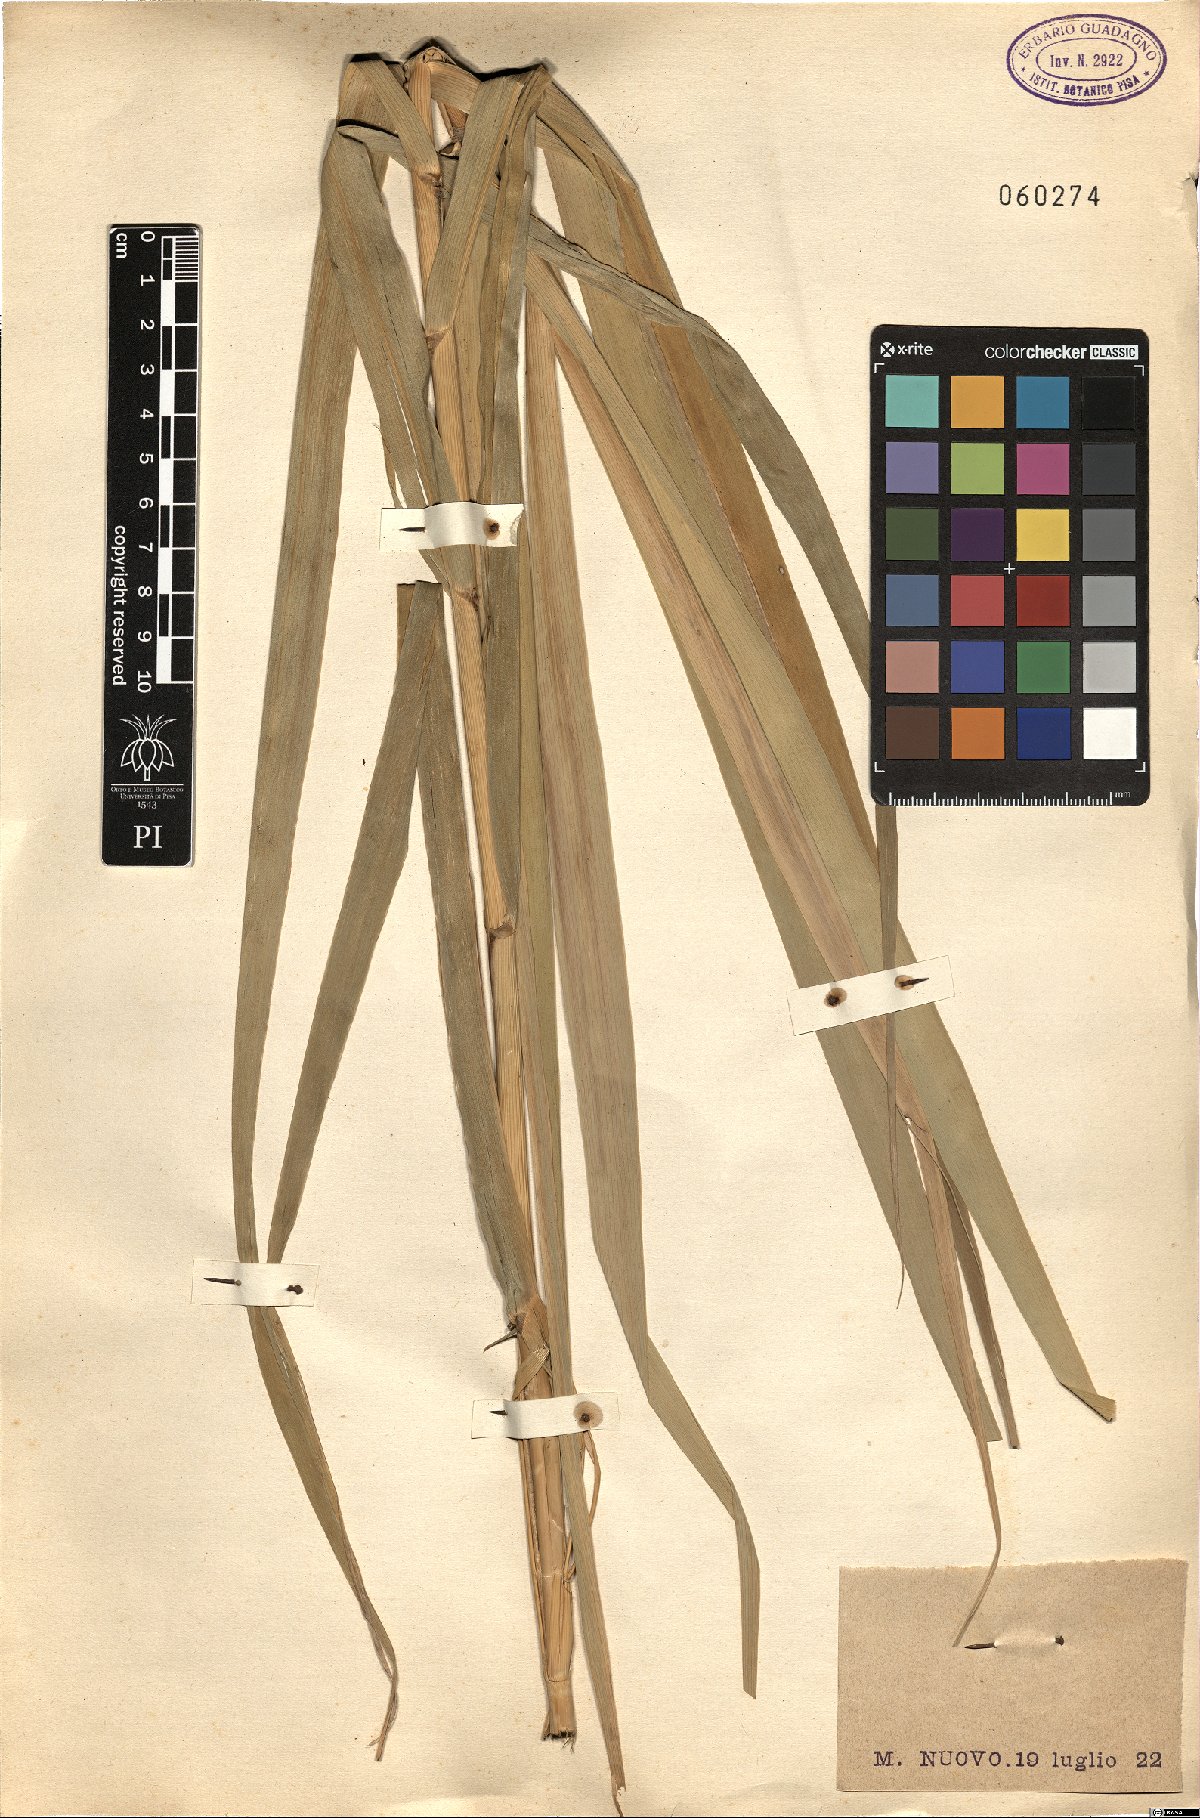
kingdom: Plantae
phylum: Tracheophyta
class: Liliopsida
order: Poales
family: Poaceae
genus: Arundo
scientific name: Arundo
